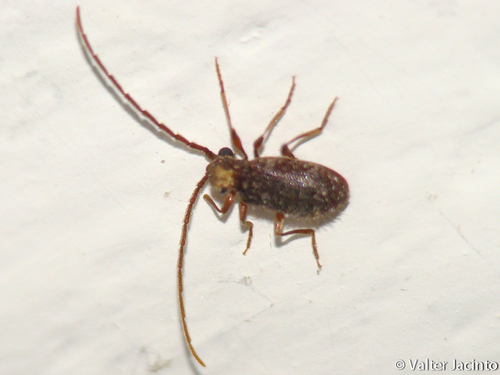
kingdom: Animalia
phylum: Arthropoda
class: Insecta
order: Coleoptera
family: Ptinidae
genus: Ptinus
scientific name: Ptinus bidens
